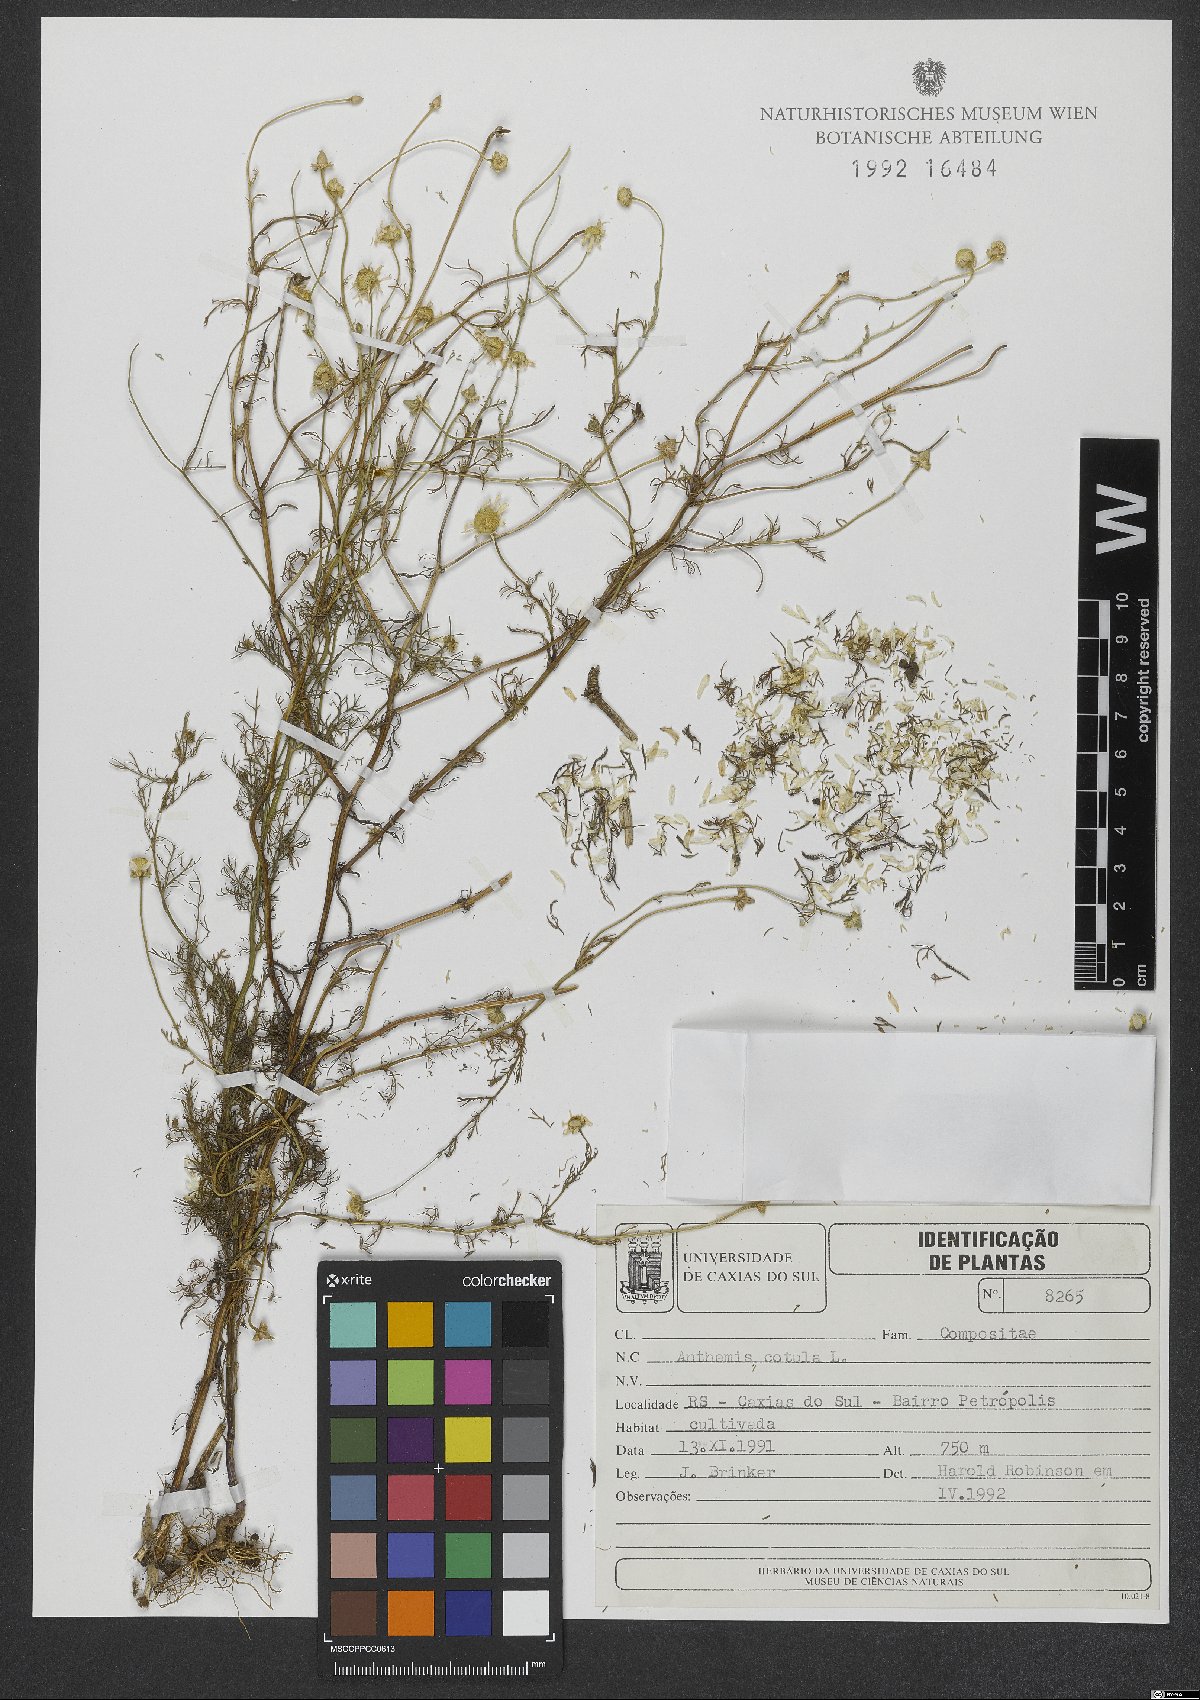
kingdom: Plantae
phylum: Tracheophyta
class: Magnoliopsida
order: Asterales
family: Asteraceae
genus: Anthemis
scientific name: Anthemis cotula
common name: Stinking chamomile
